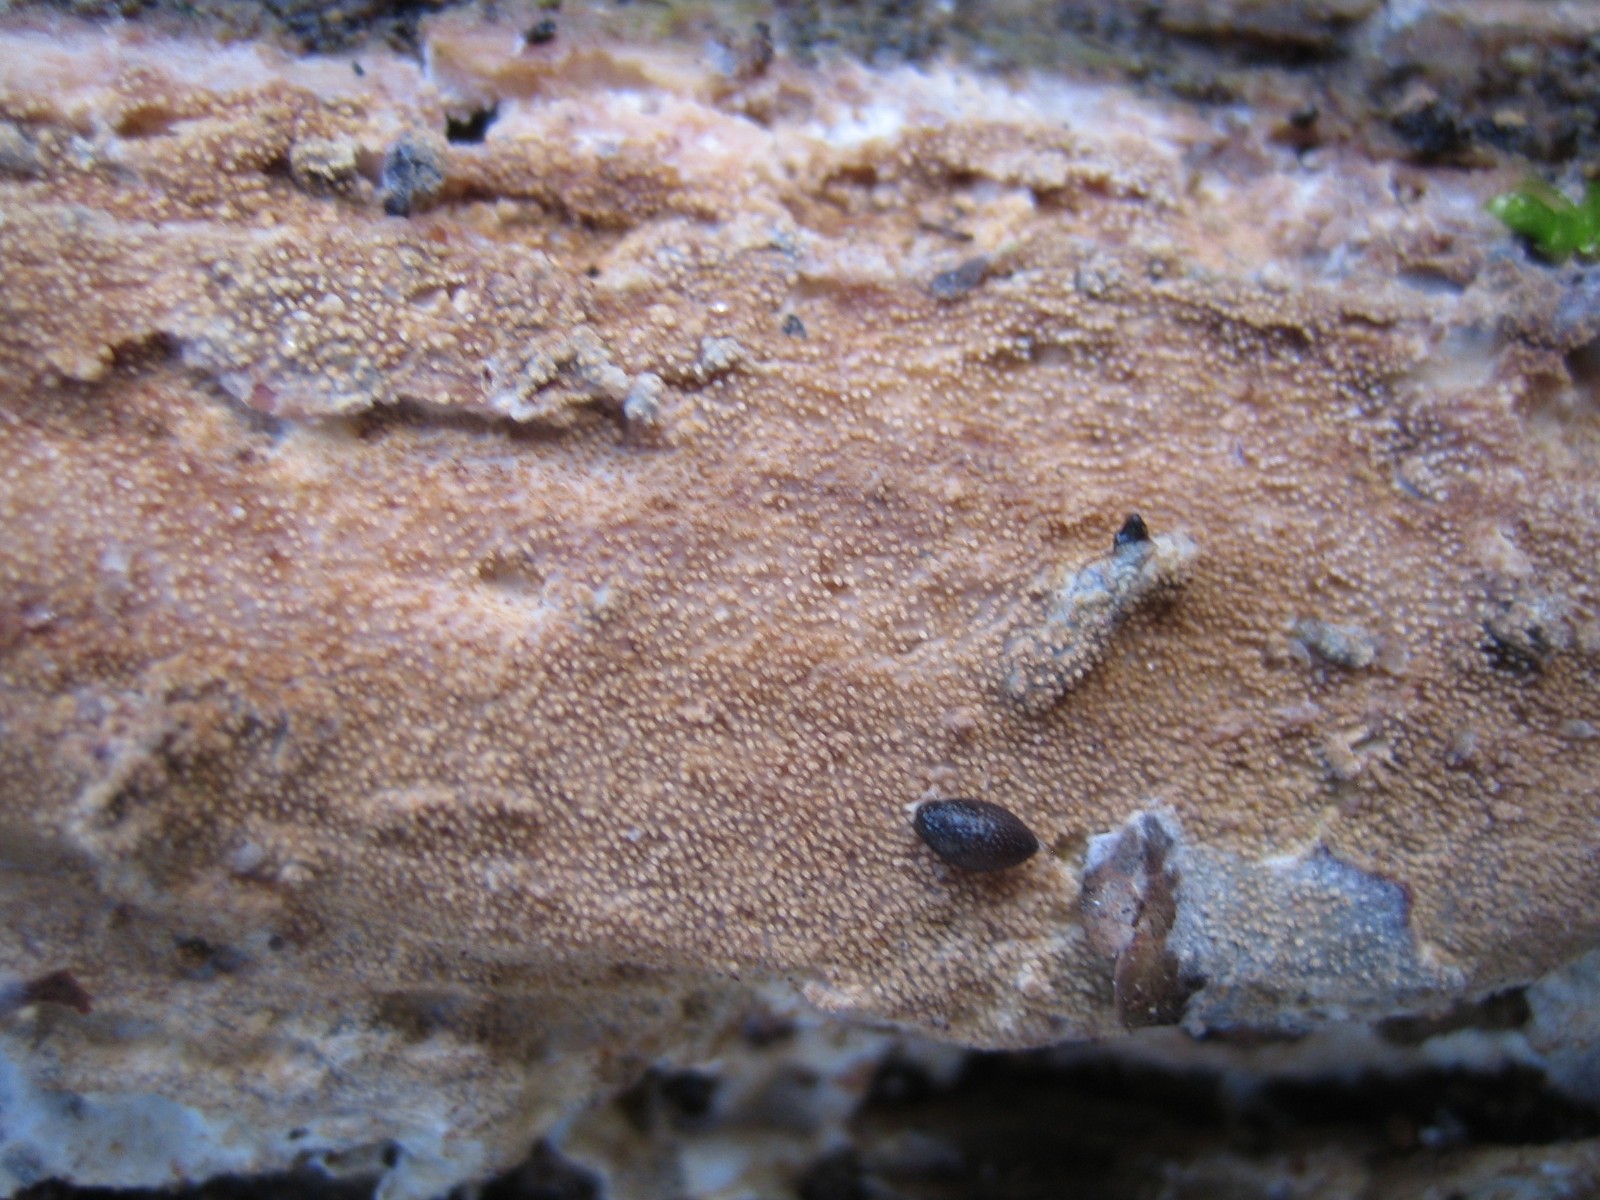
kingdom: Fungi
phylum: Basidiomycota
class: Agaricomycetes
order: Corticiales
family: Corticiaceae
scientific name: Corticiaceae
